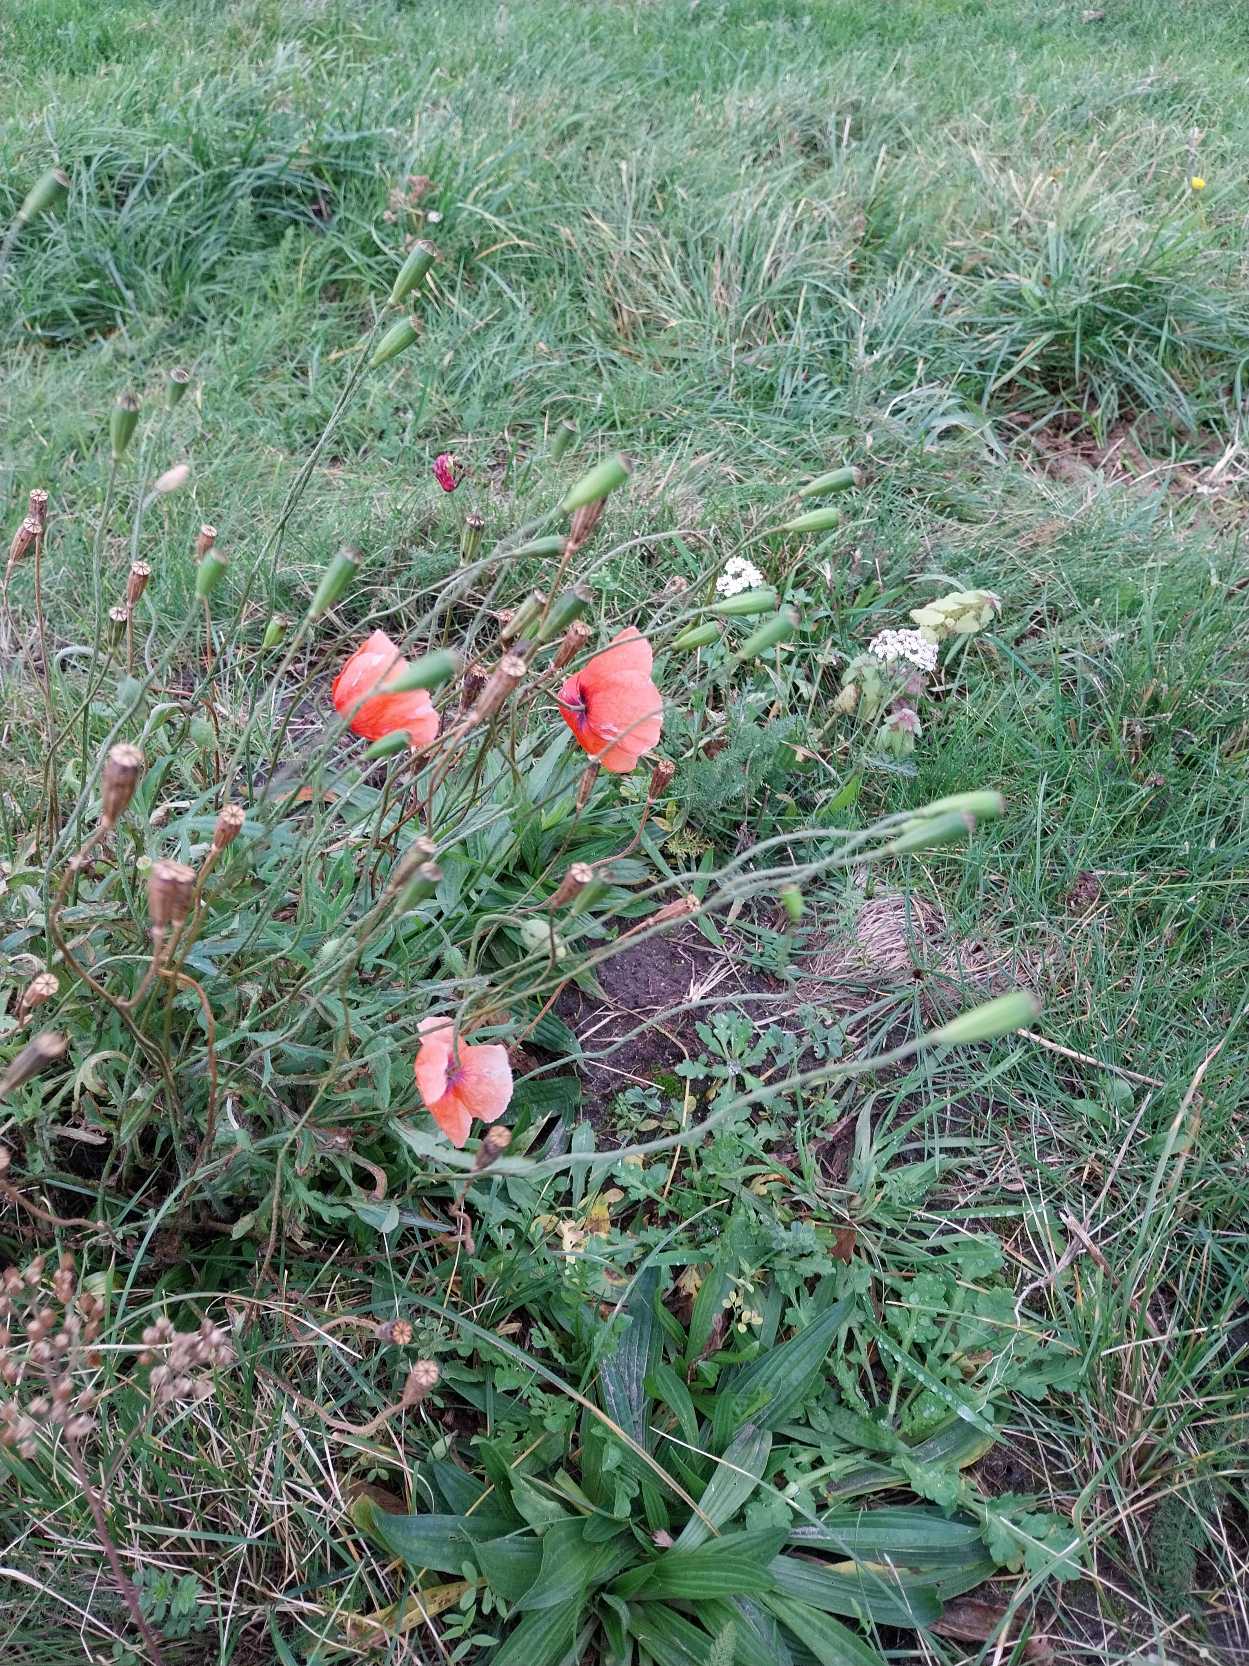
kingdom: Plantae
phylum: Tracheophyta
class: Magnoliopsida
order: Ranunculales
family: Papaveraceae
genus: Papaver
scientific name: Papaver dubium
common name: Gærde-valmue
